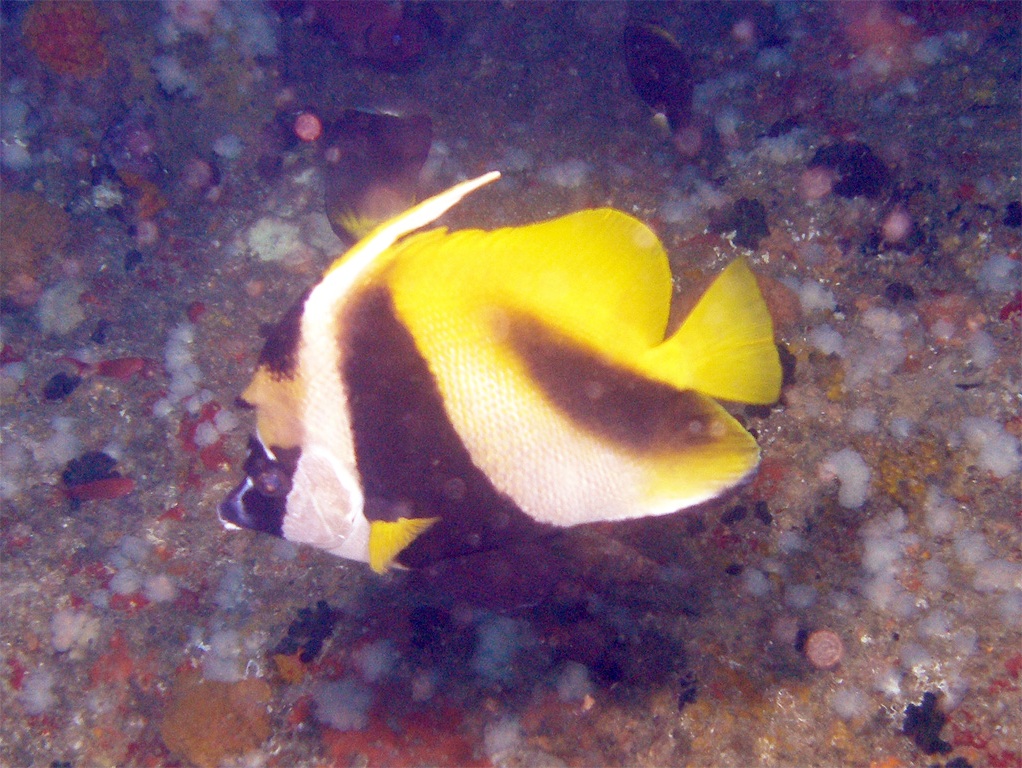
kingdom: Animalia
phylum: Chordata
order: Perciformes
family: Chaetodontidae
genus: Heniochus
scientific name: Heniochus monoceros
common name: Masked bannerfish
